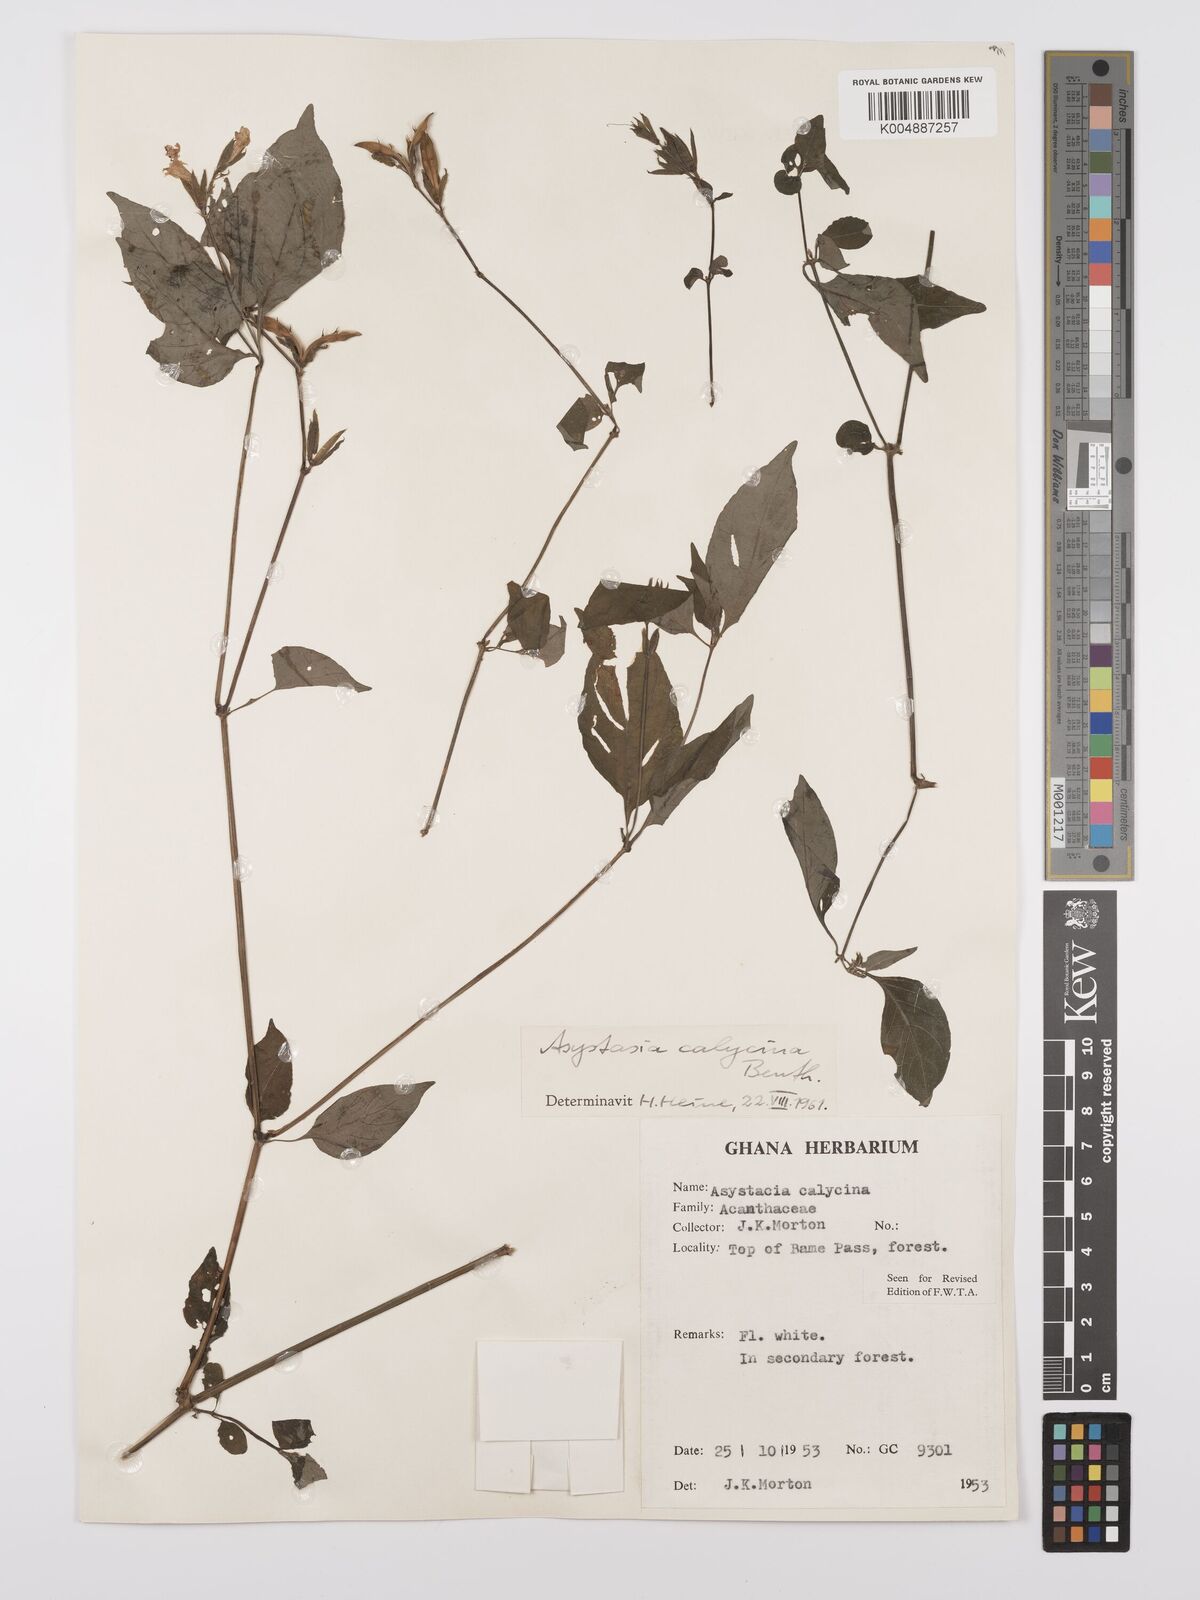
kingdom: Plantae
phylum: Tracheophyta
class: Magnoliopsida
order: Lamiales
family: Acanthaceae
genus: Asystasia
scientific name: Asystasia
